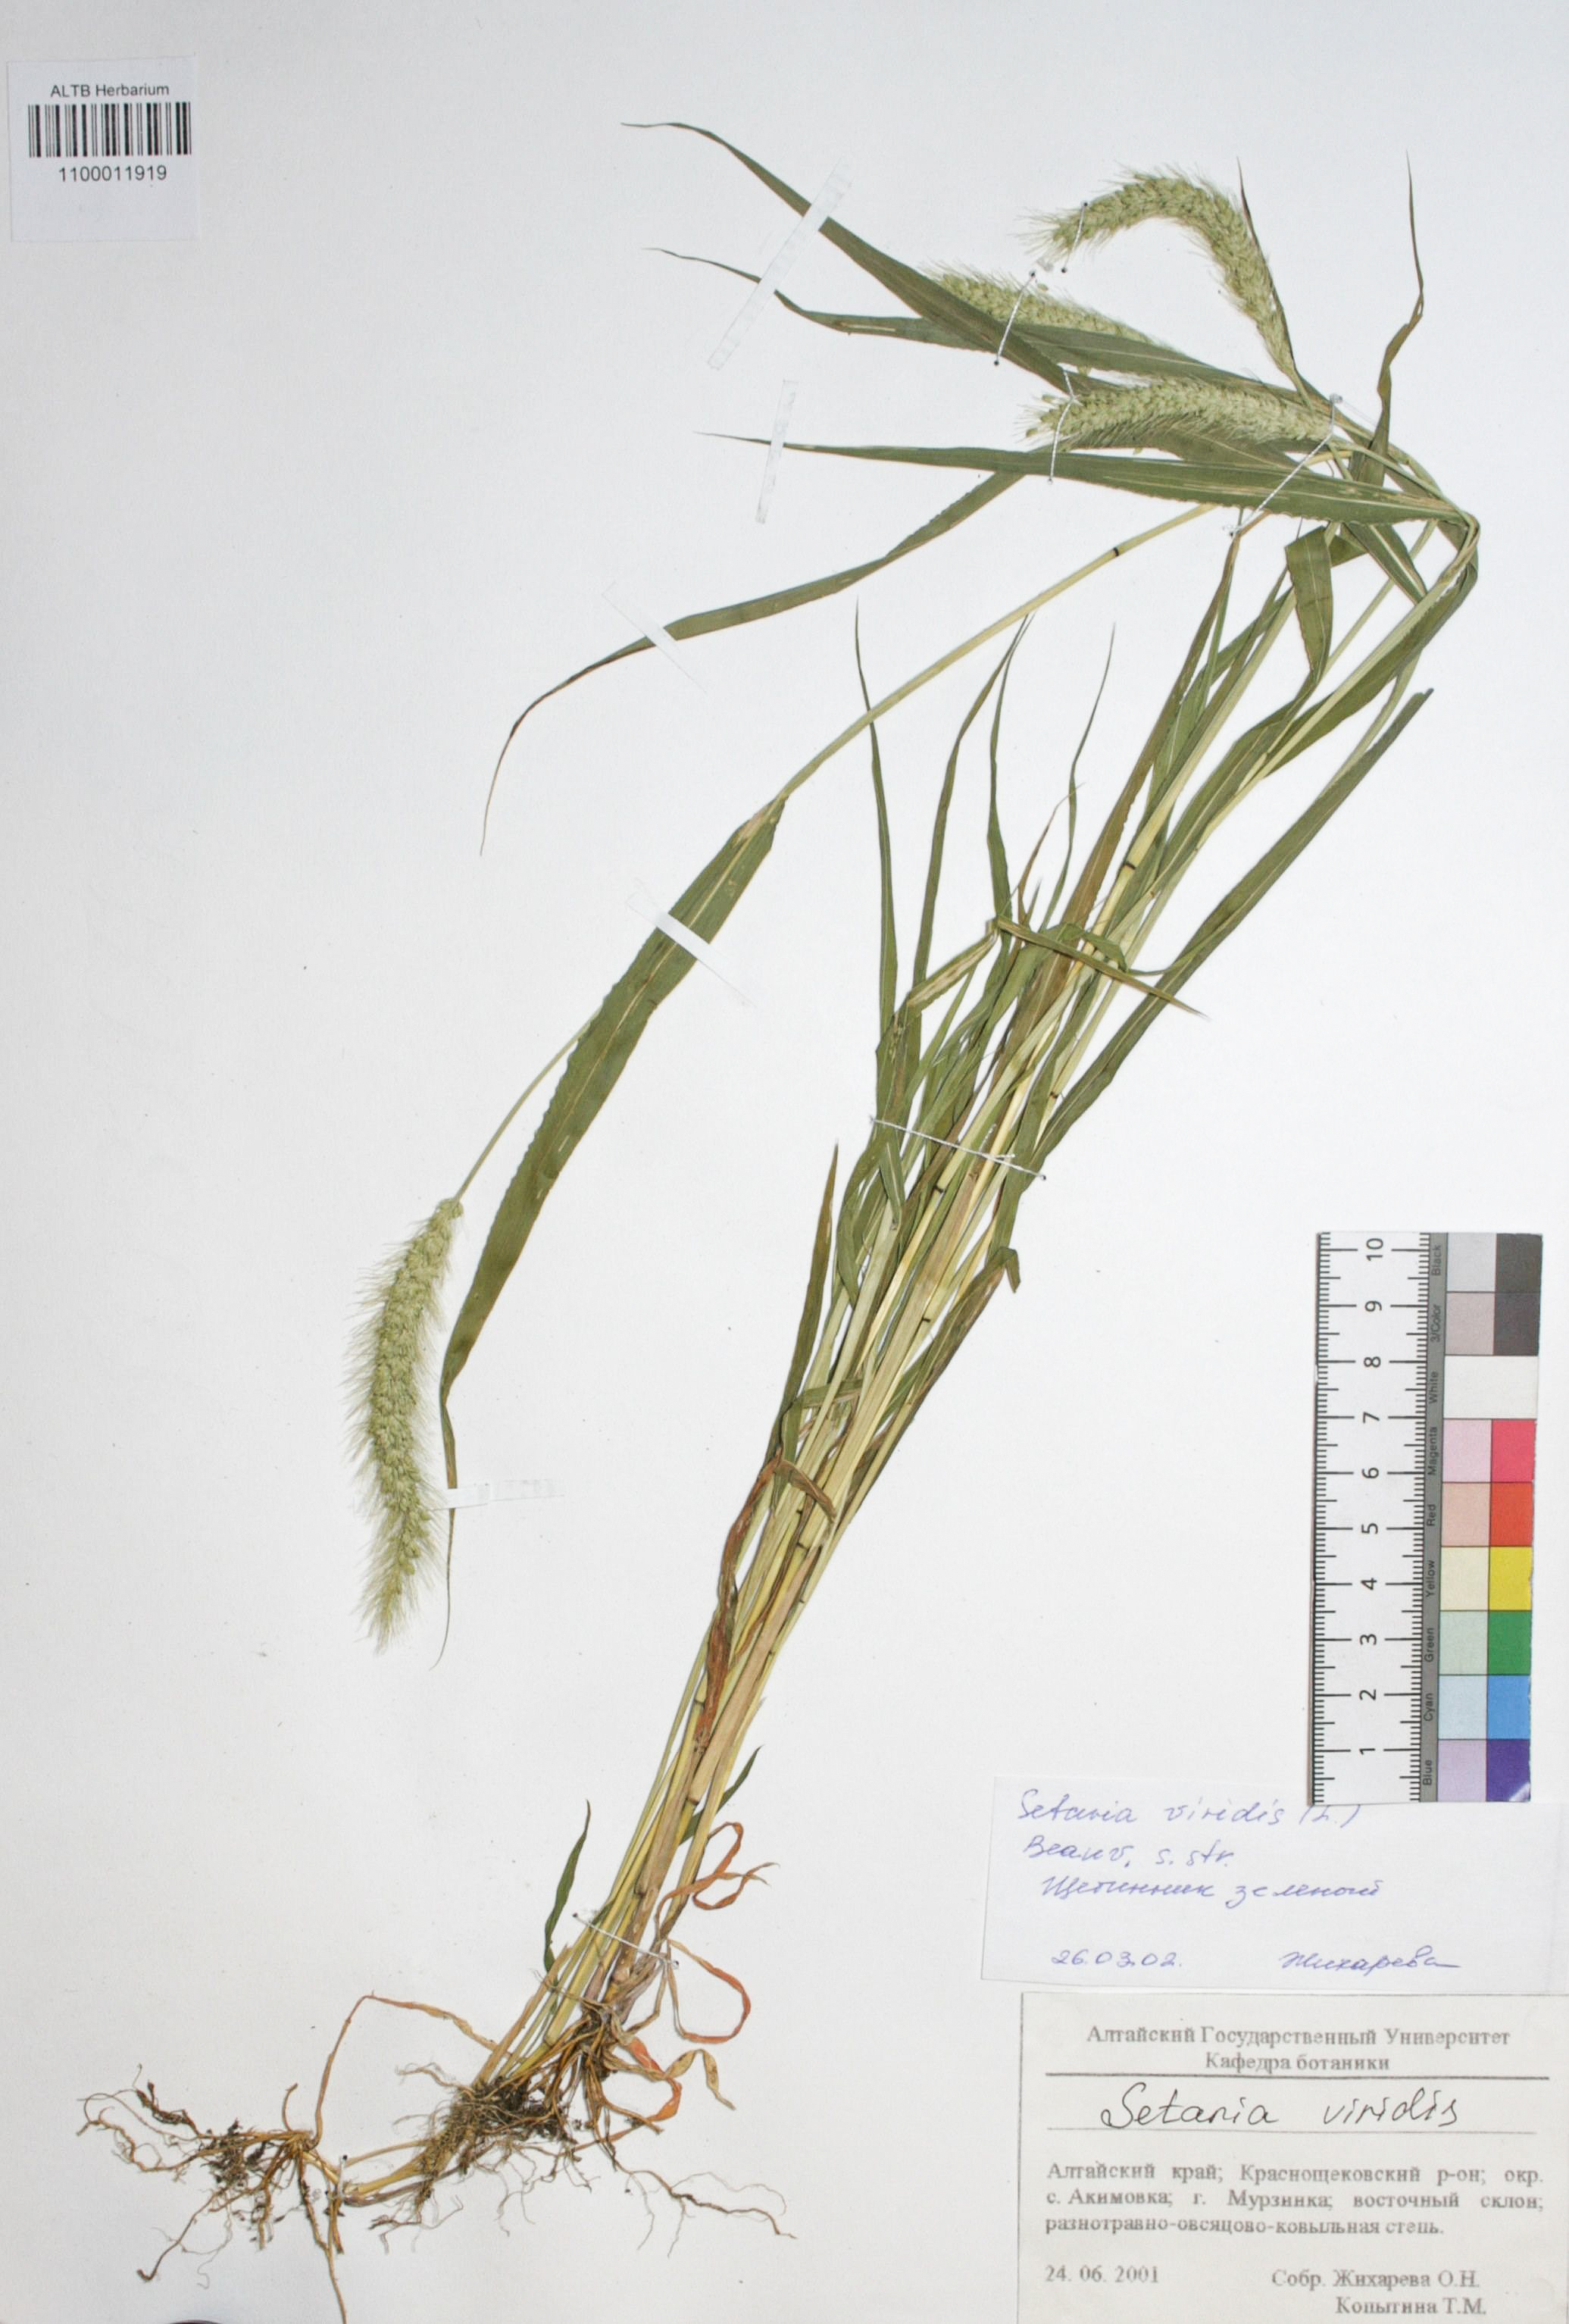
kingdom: Plantae
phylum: Tracheophyta
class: Liliopsida
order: Poales
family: Poaceae
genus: Setaria
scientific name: Setaria viridis
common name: Green bristlegrass
